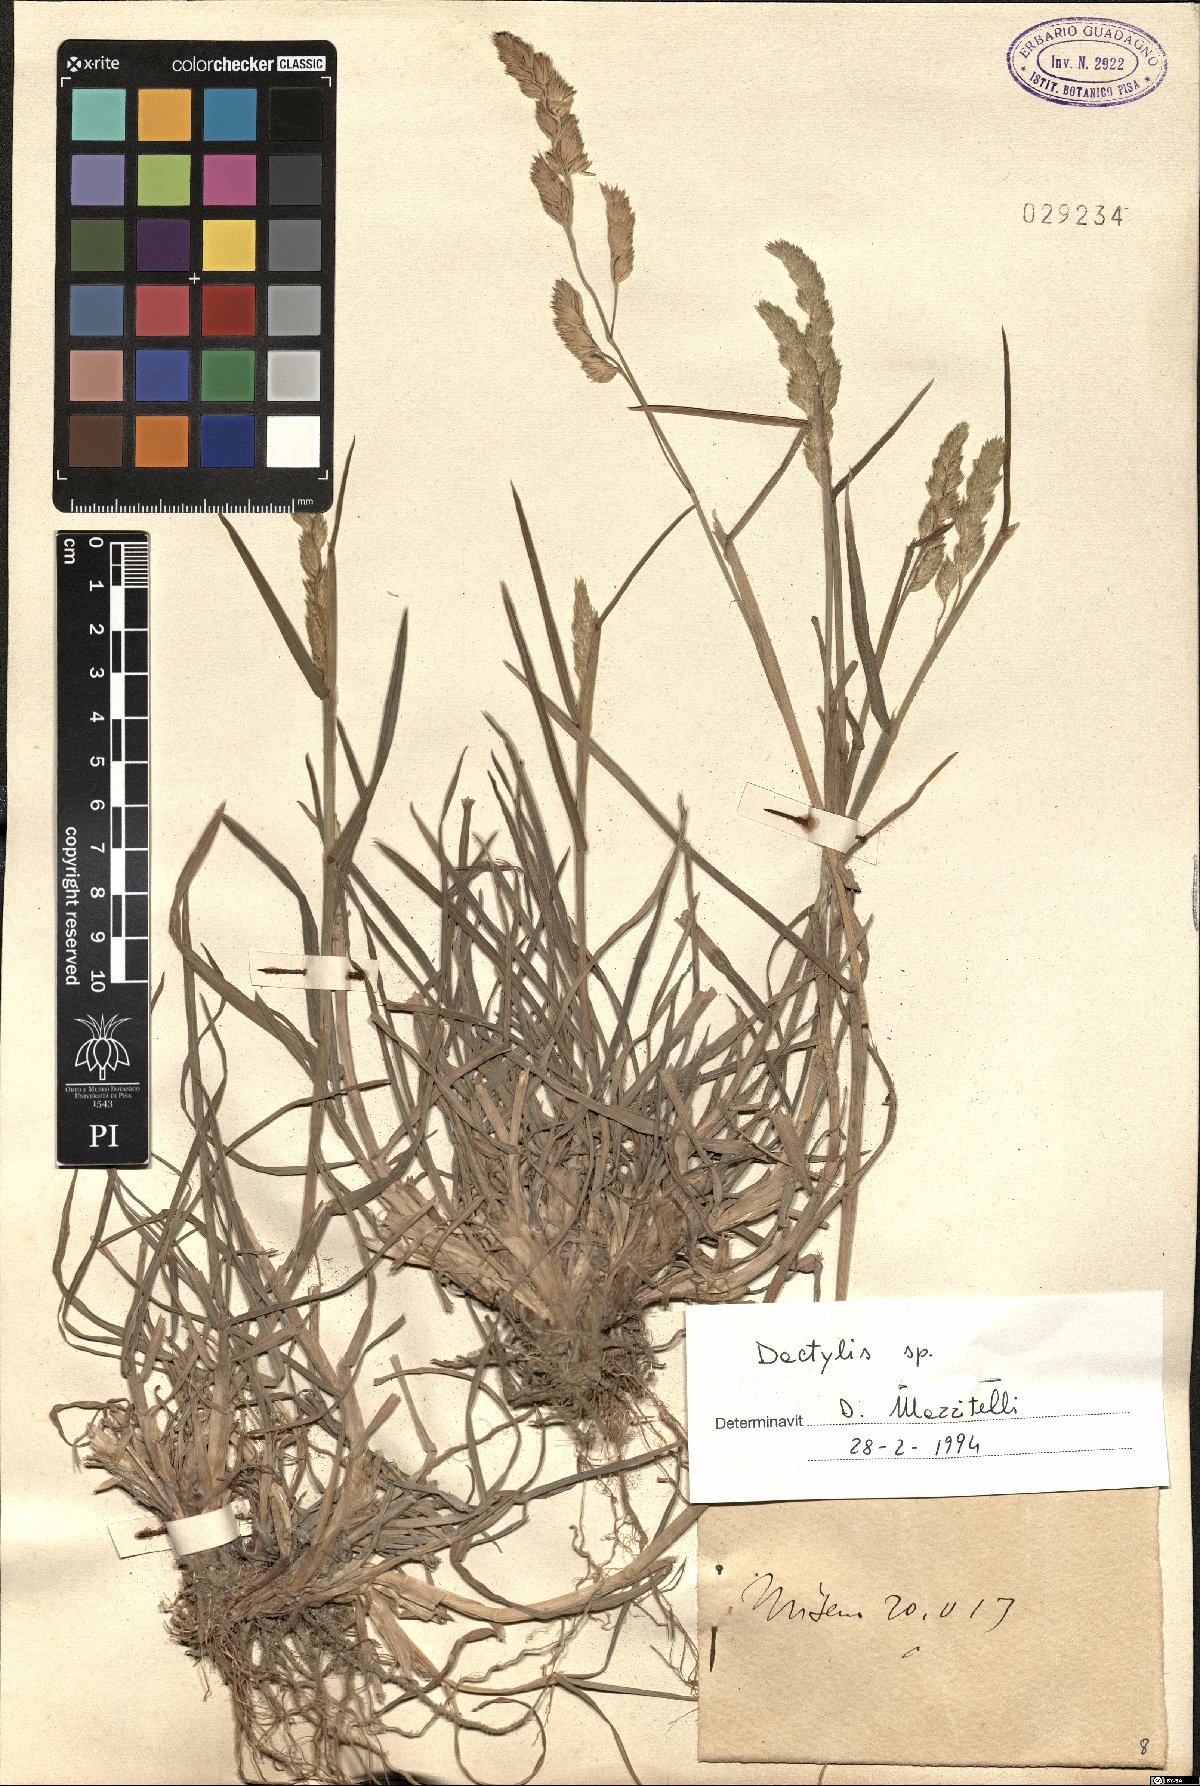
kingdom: Plantae
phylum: Tracheophyta
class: Liliopsida
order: Poales
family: Poaceae
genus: Dactylis
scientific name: Dactylis
